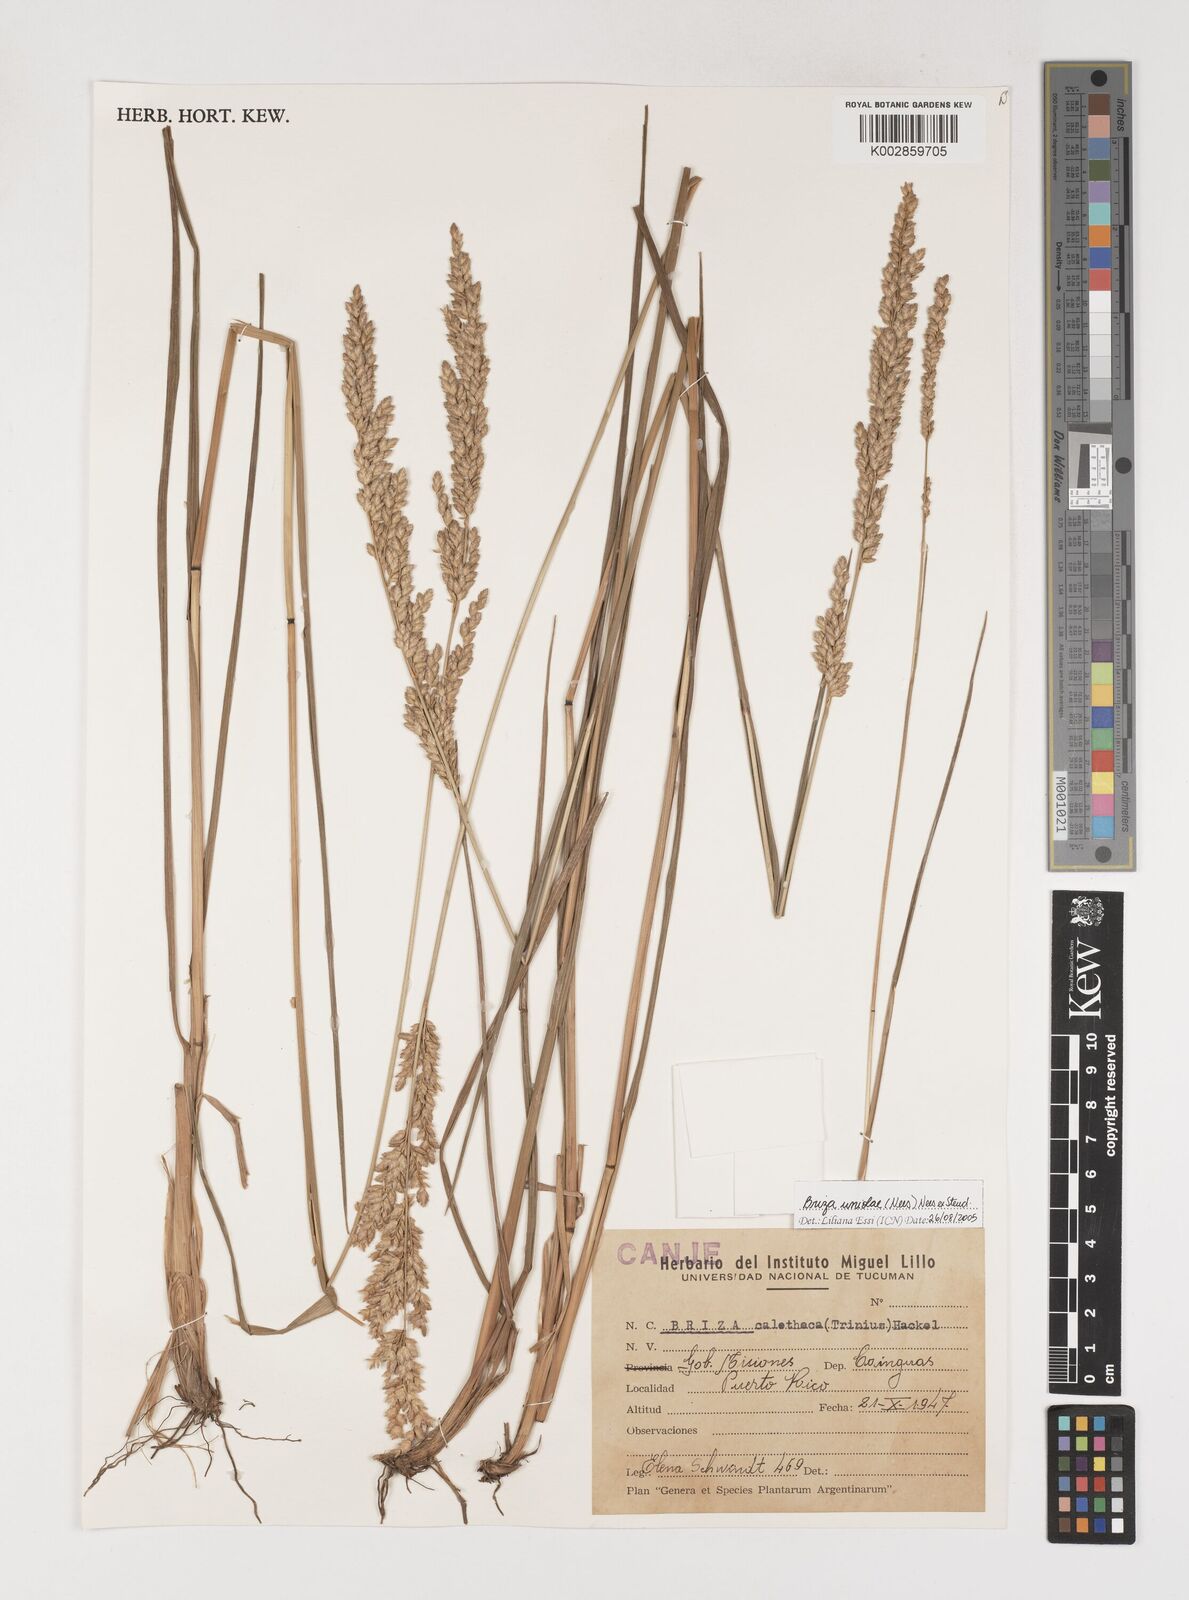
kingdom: Plantae
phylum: Tracheophyta
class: Liliopsida
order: Poales
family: Poaceae
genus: Poidium
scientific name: Poidium uniolae
